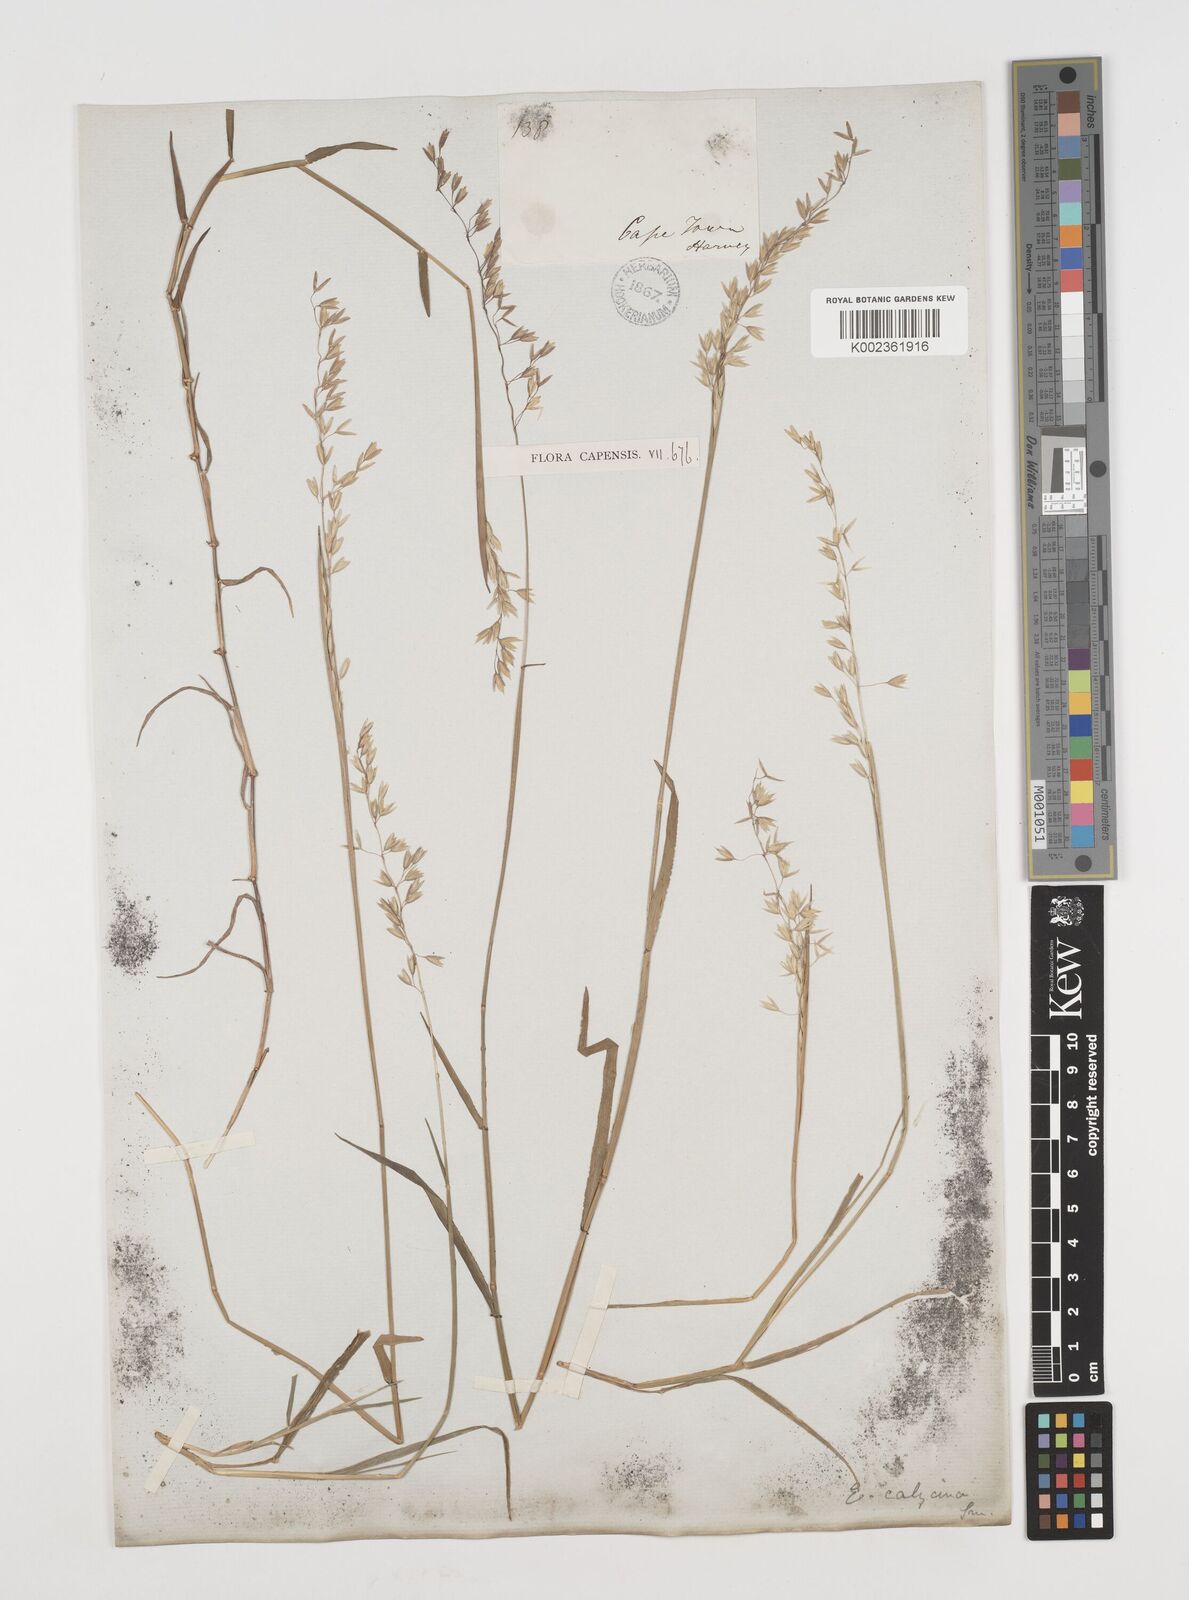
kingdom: Plantae
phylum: Tracheophyta
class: Liliopsida
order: Poales
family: Poaceae
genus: Ehrharta
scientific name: Ehrharta calycina
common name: Perennial veldtgrass
